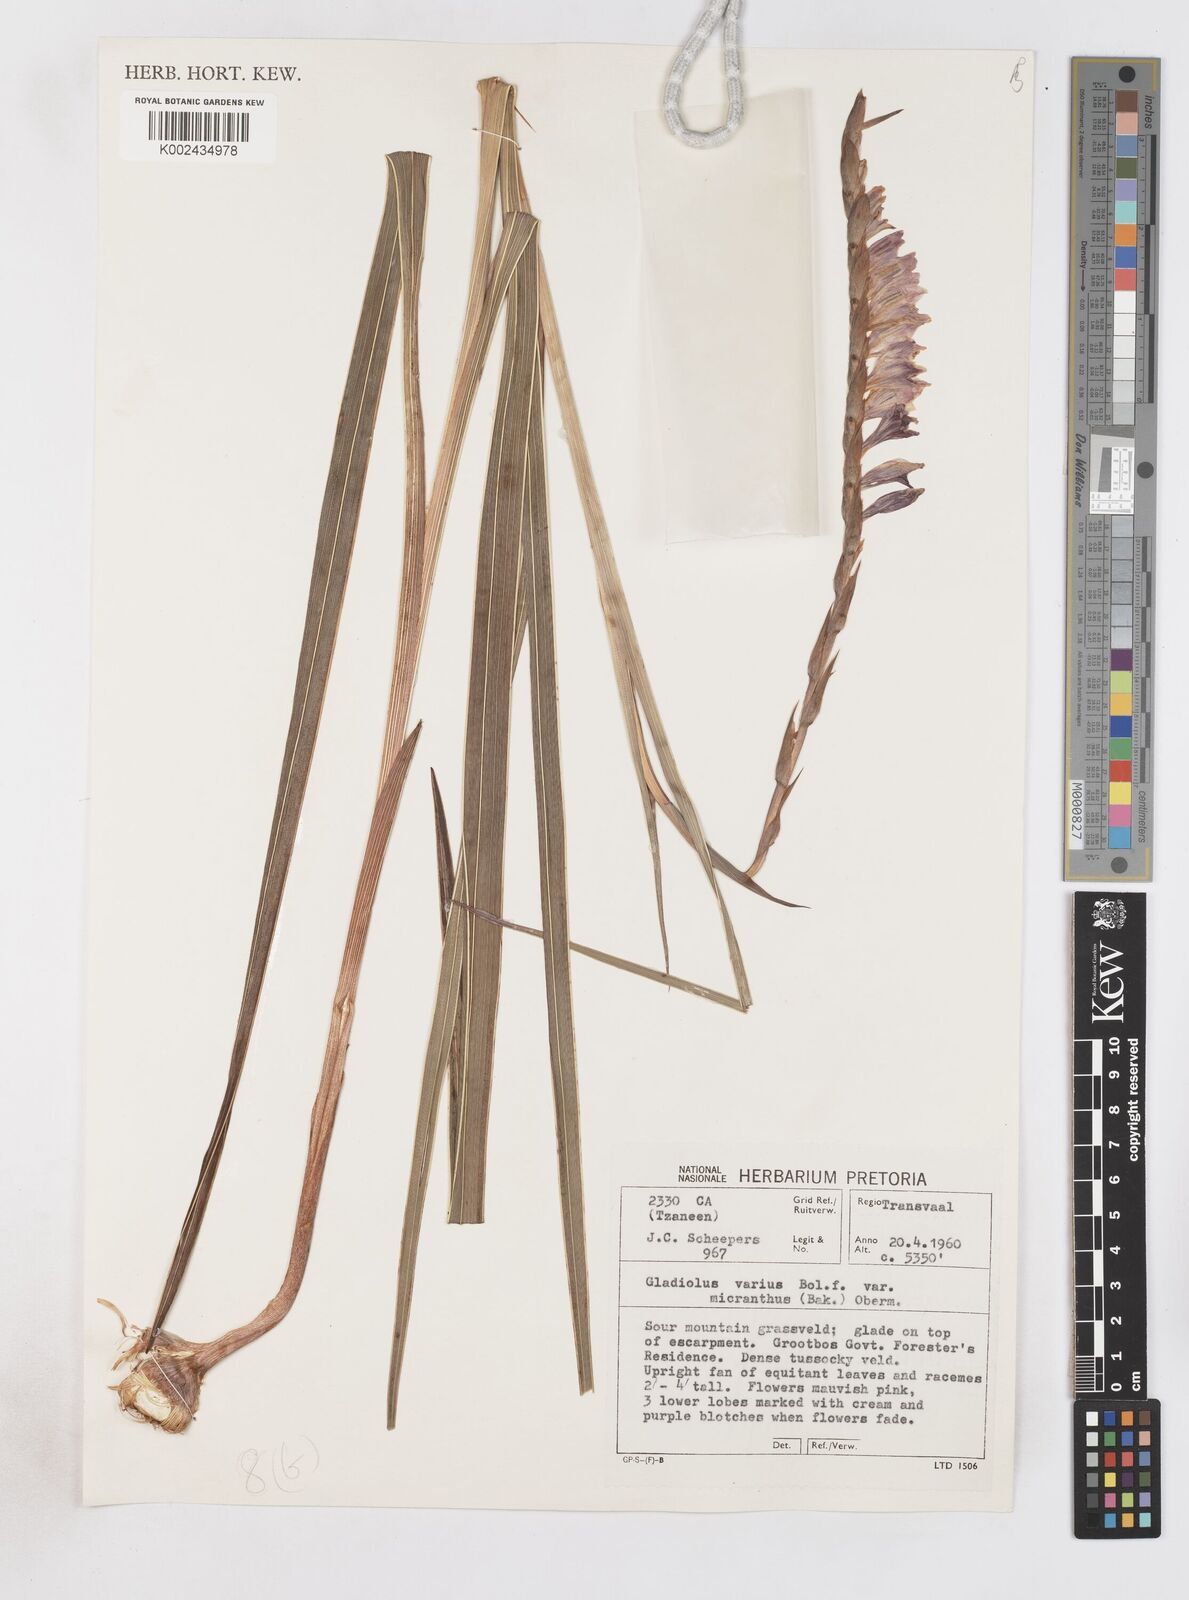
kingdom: Plantae
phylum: Tracheophyta
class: Liliopsida
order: Asparagales
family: Iridaceae
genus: Gladiolus
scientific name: Gladiolus ferrugineus
